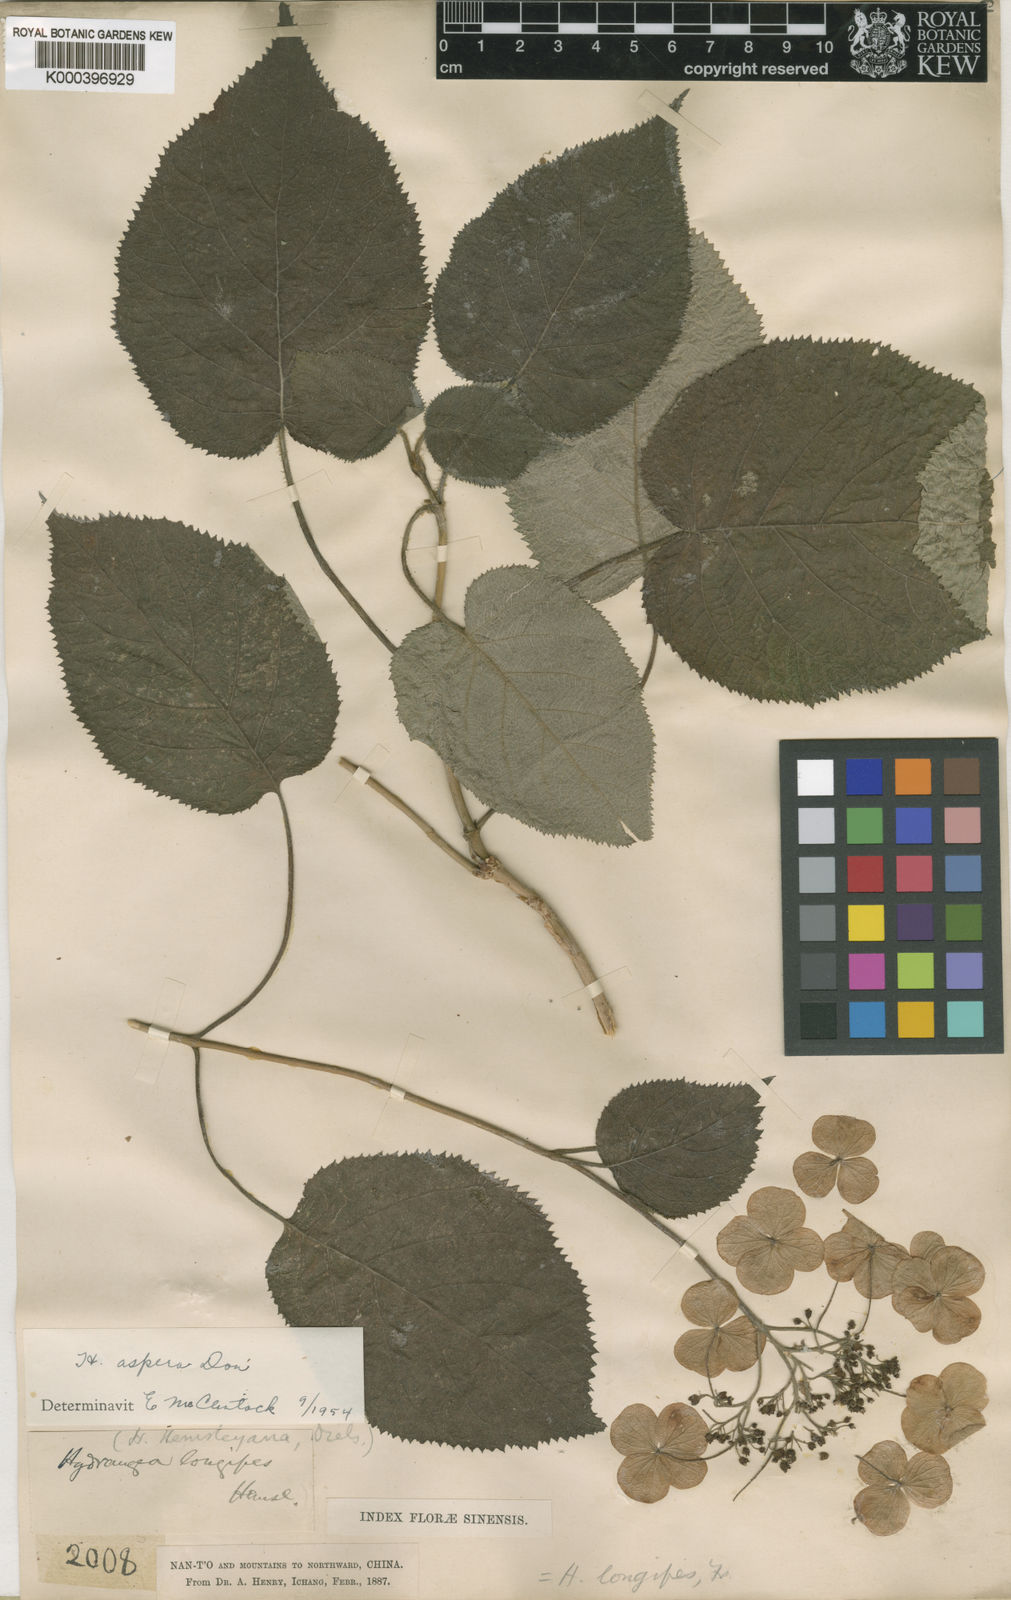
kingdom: Plantae
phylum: Tracheophyta
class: Magnoliopsida
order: Cornales
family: Hydrangeaceae
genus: Hydrangea
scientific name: Hydrangea longipes
